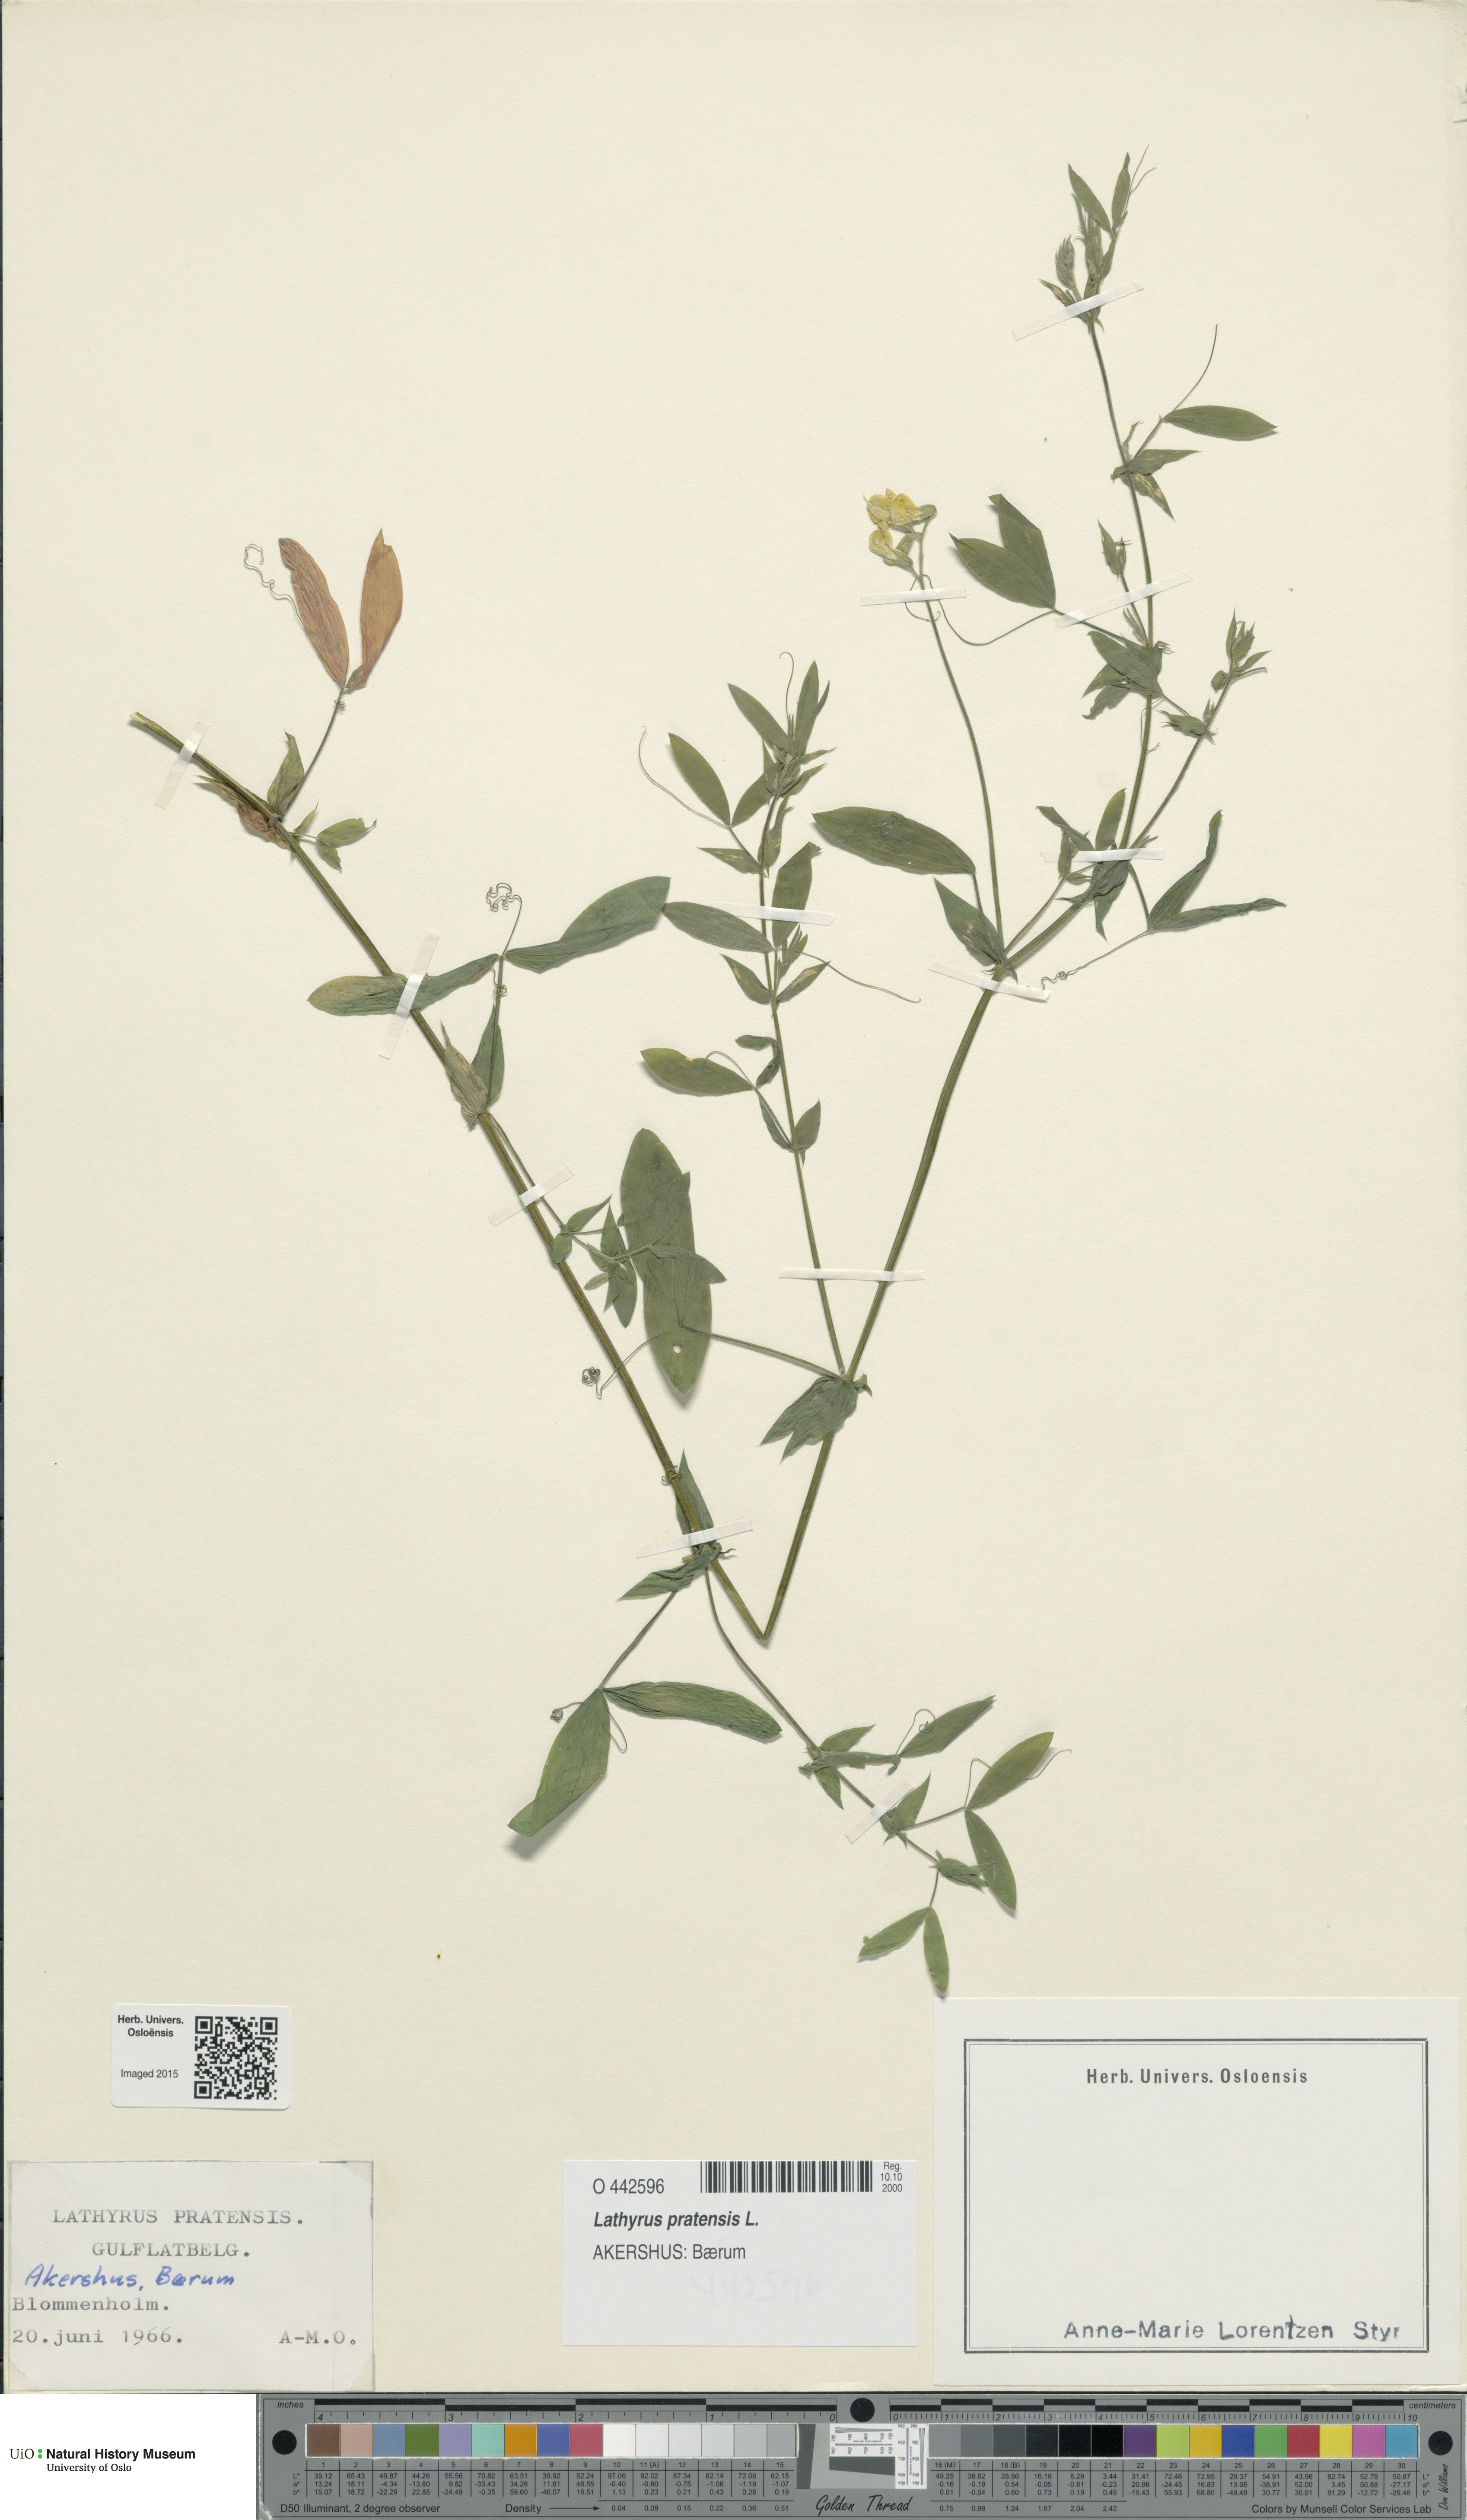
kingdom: Plantae
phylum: Tracheophyta
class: Magnoliopsida
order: Fabales
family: Fabaceae
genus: Lathyrus
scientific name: Lathyrus pratensis
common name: Meadow vetchling
